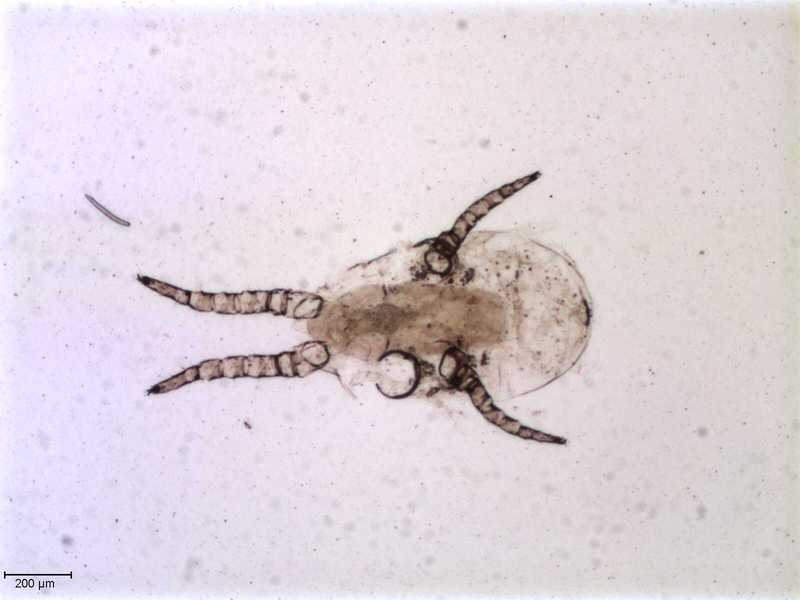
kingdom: Animalia
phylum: Arthropoda
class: Arachnida
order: Mesostigmata
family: Halarachnidae
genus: Orthohalarachne
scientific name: Orthohalarachne letalis
